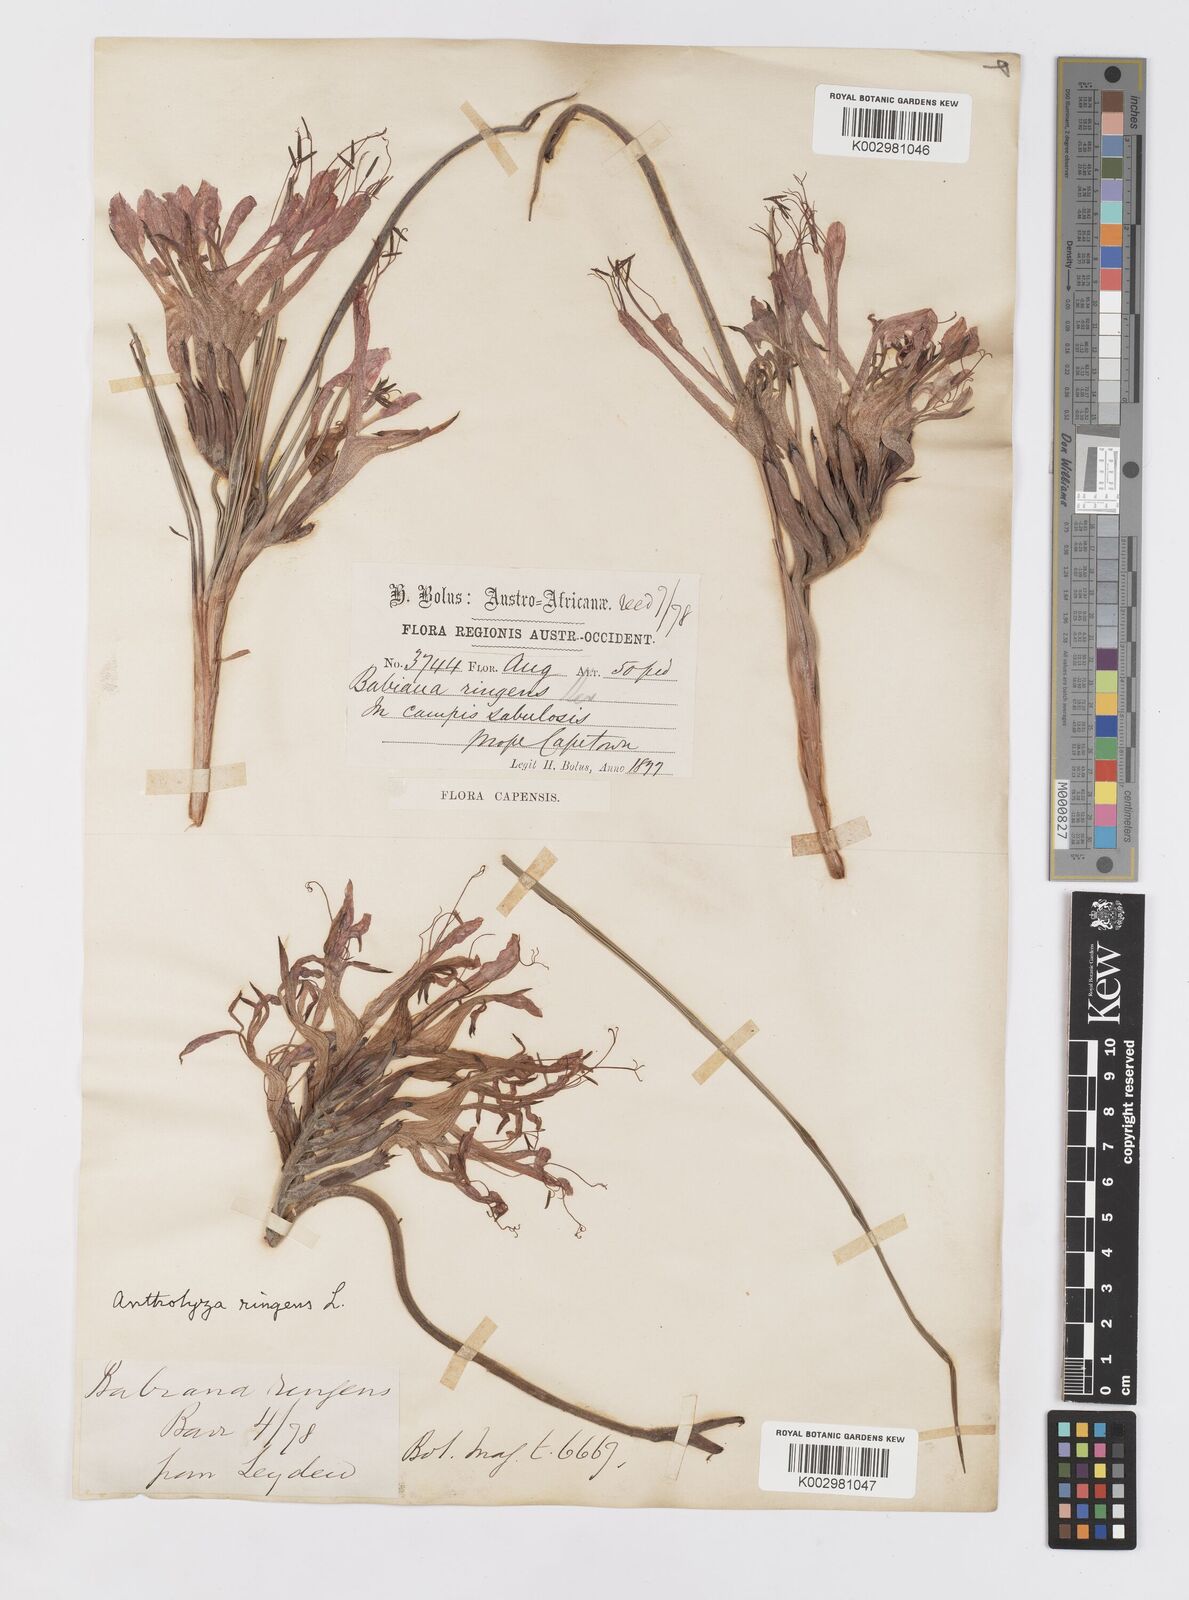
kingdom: Plantae
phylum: Tracheophyta
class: Liliopsida
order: Asparagales
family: Iridaceae
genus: Babiana
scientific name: Babiana ringens
